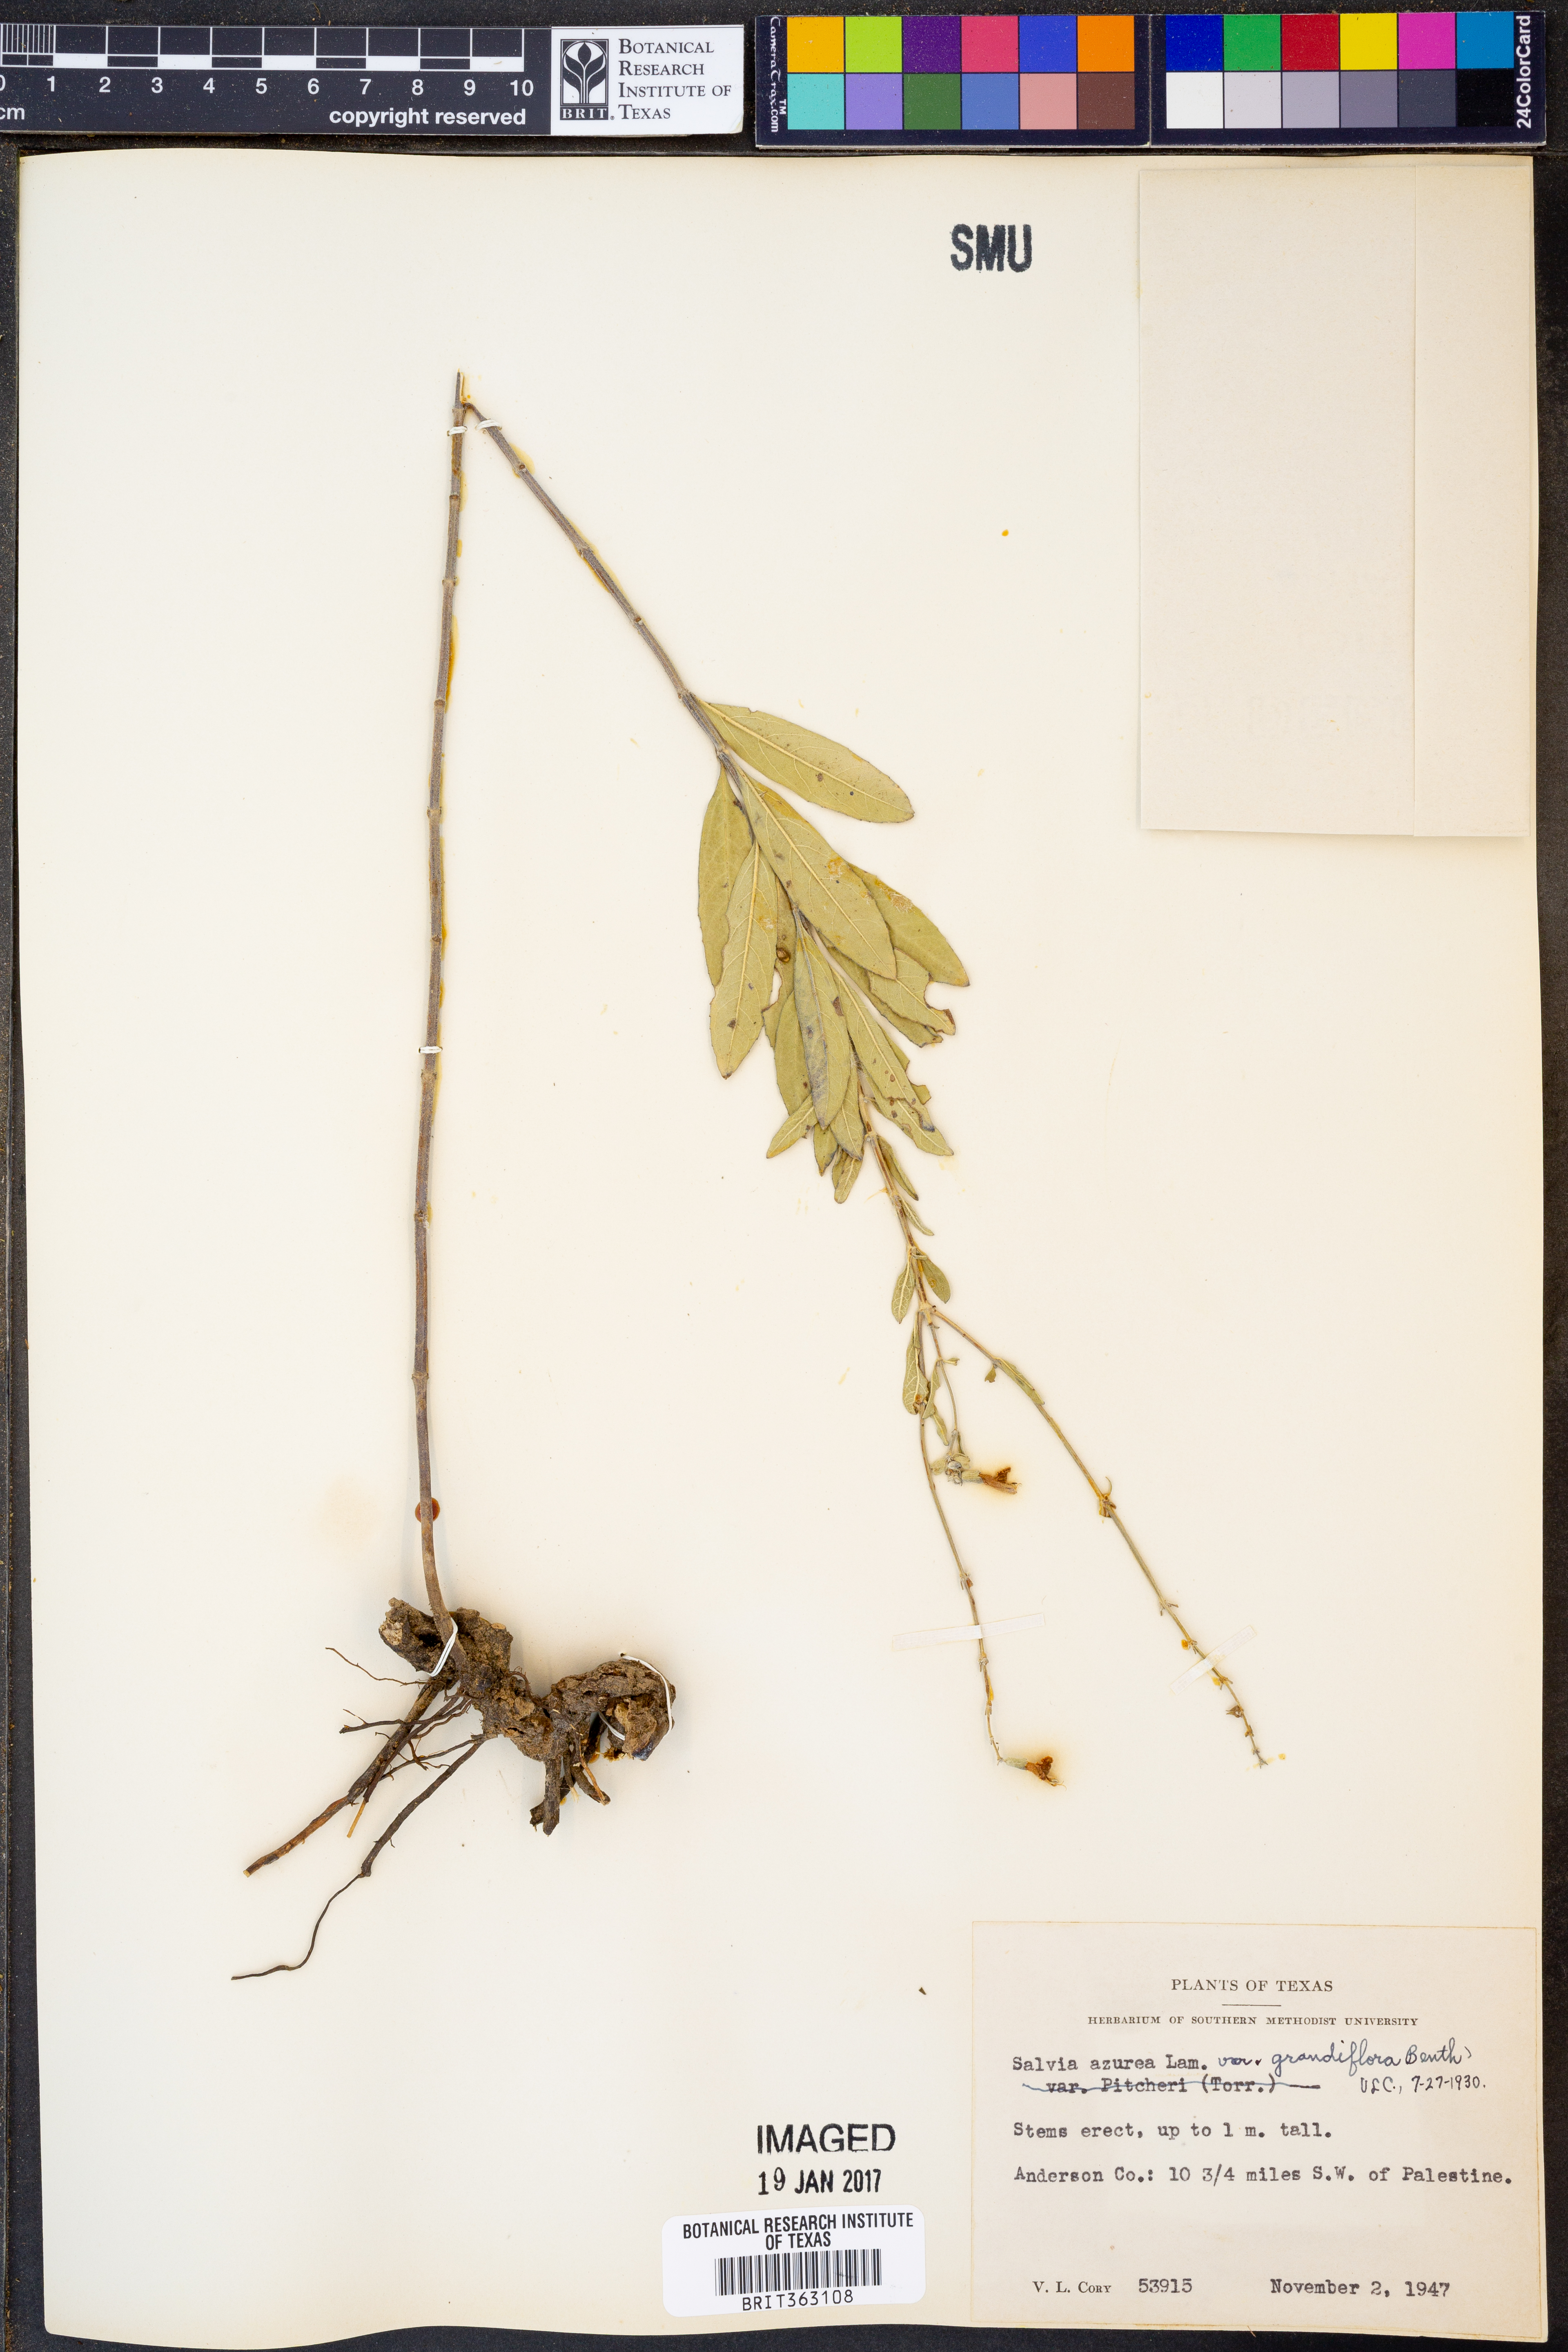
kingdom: Plantae
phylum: Tracheophyta
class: Magnoliopsida
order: Lamiales
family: Lamiaceae
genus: Salvia
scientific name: Salvia azurea
